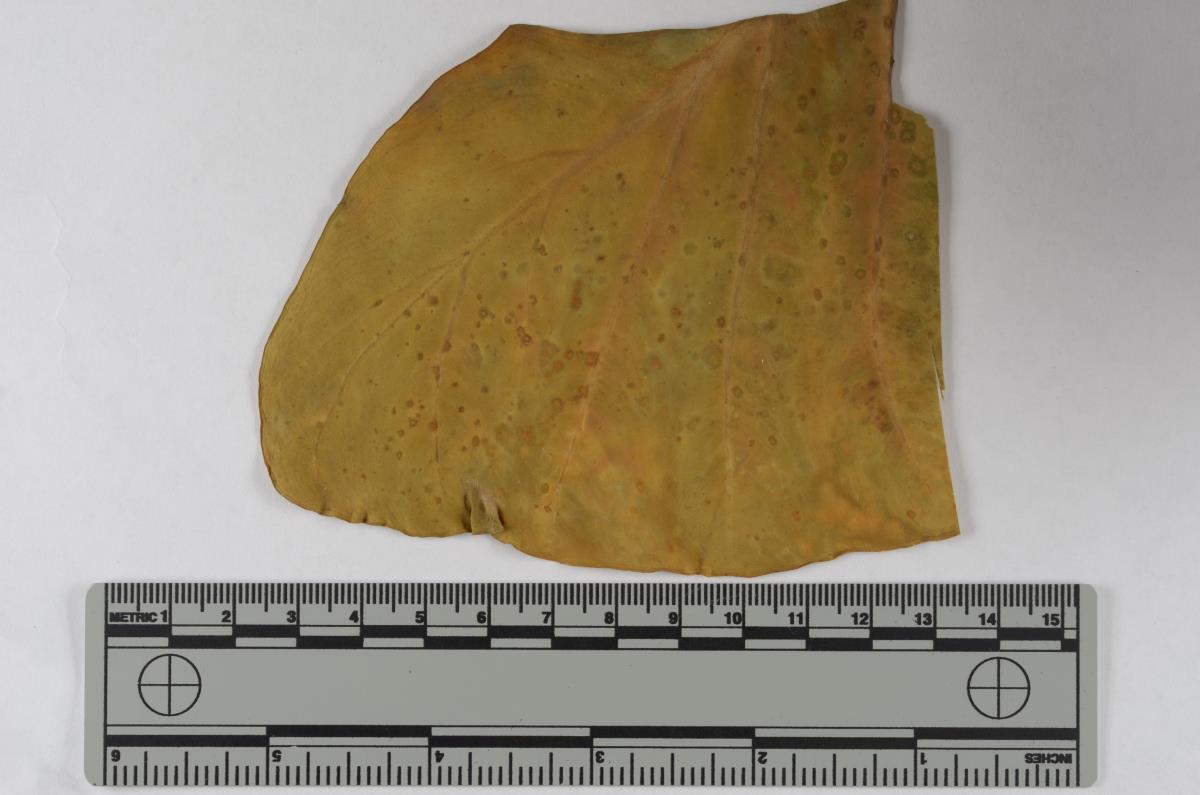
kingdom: Fungi
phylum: Ascomycota
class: Dothideomycetes
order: Capnodiales
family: Cladosporiaceae
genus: Cladosporium
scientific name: Cladosporium colocasiae
